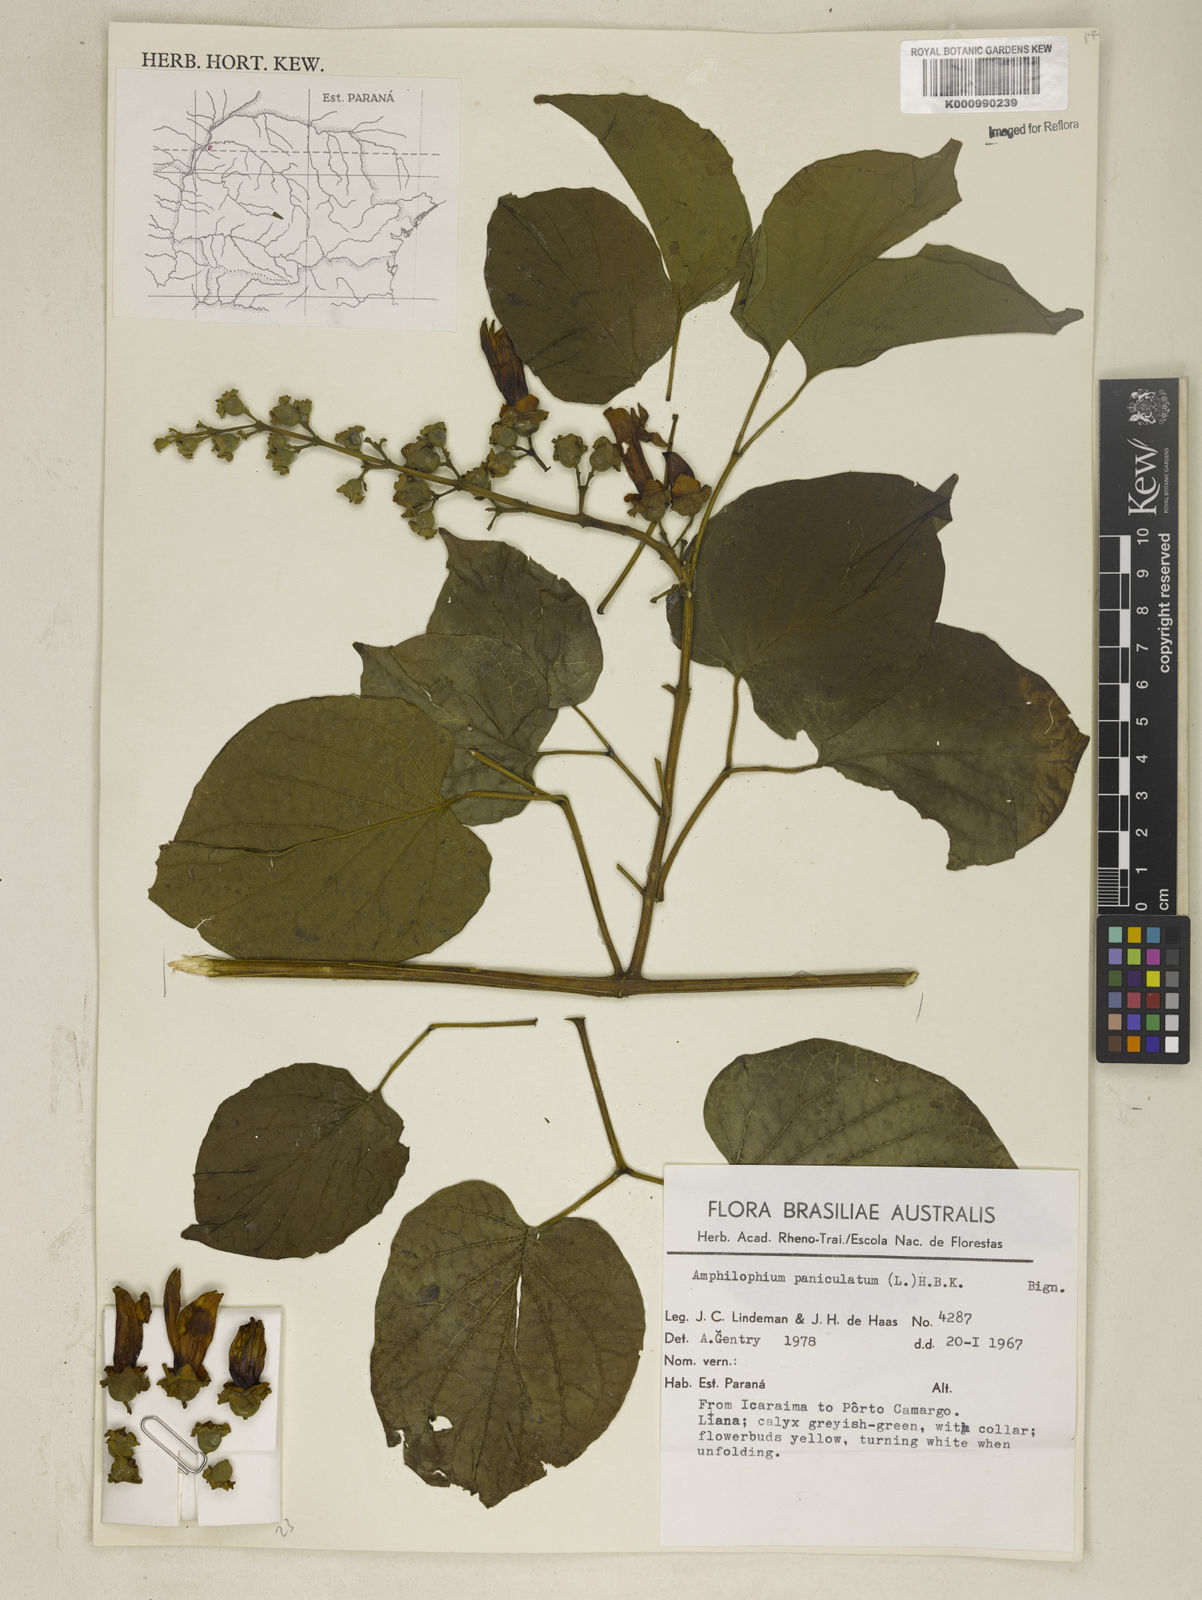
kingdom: Plantae
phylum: Tracheophyta
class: Magnoliopsida
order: Lamiales
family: Bignoniaceae
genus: Amphilophium
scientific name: Amphilophium paniculatum
